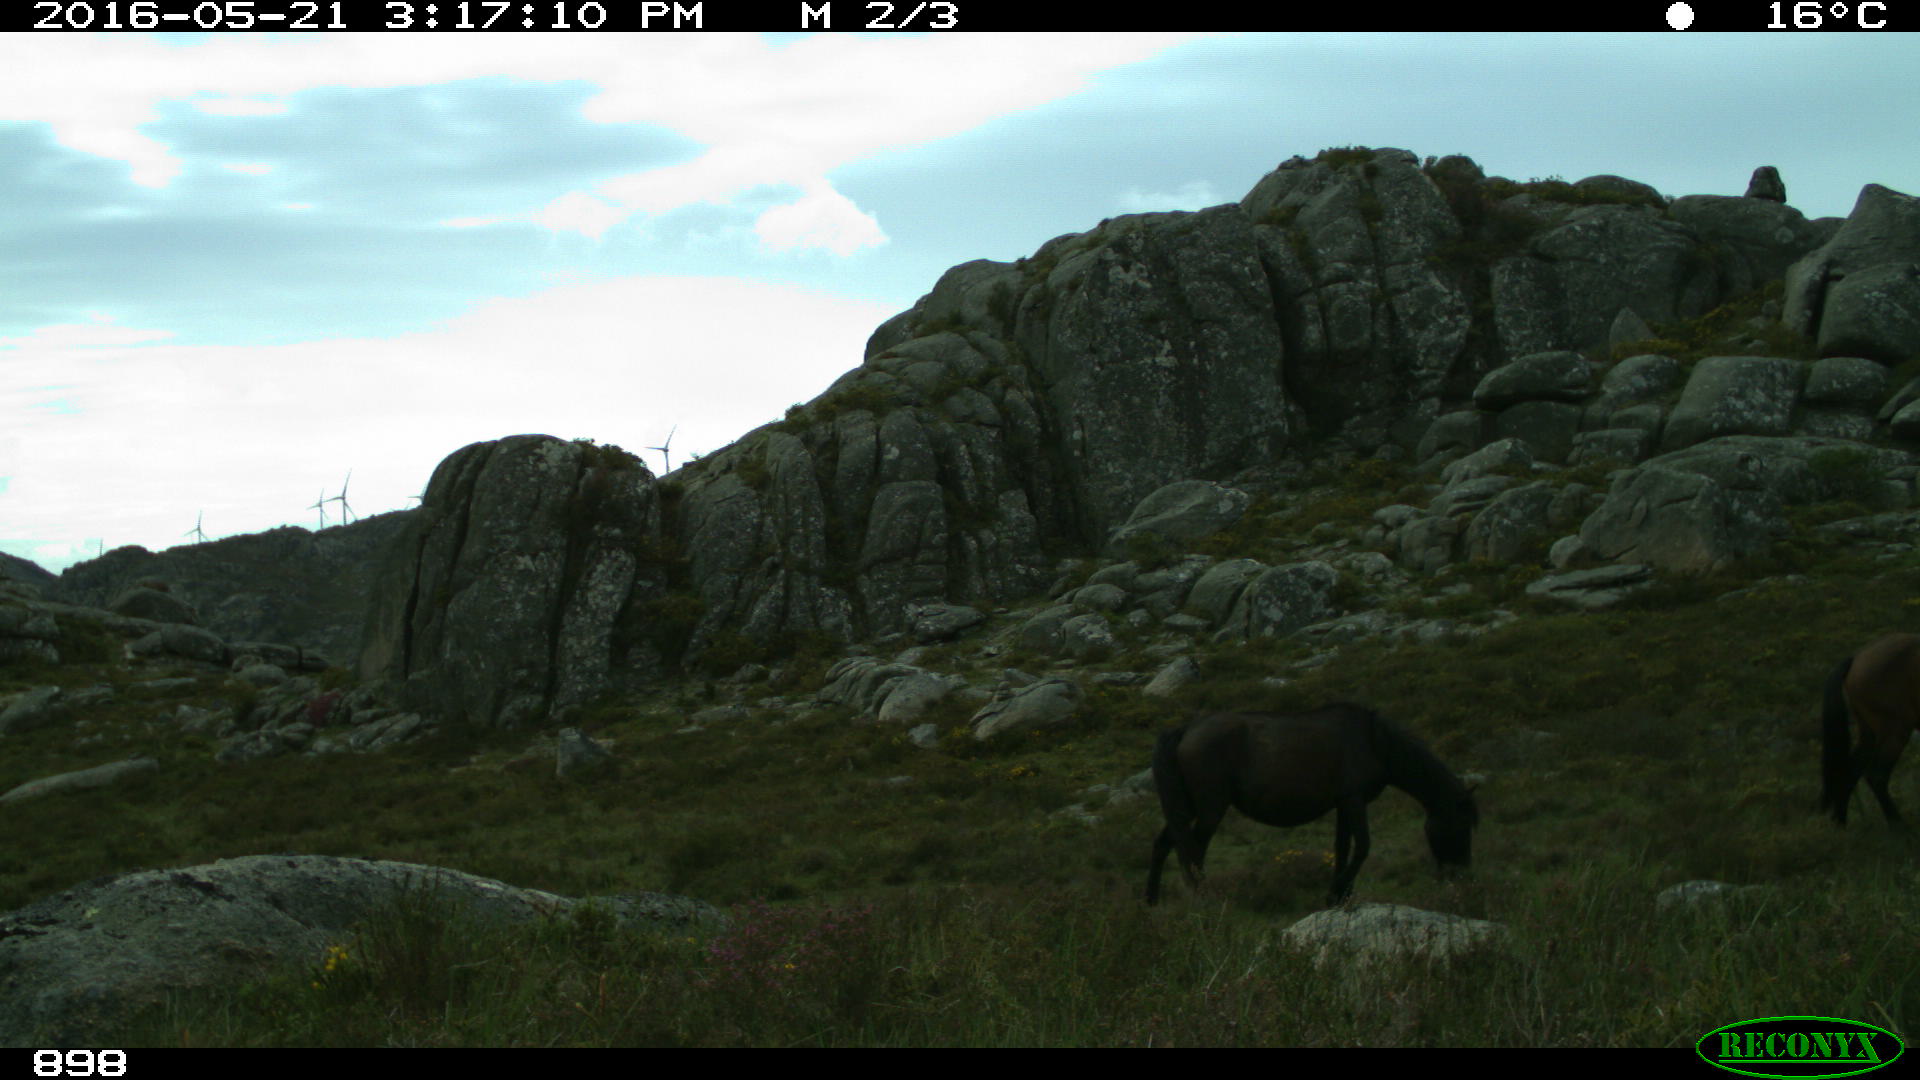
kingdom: Animalia
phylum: Chordata
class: Mammalia
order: Perissodactyla
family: Equidae
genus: Equus
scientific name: Equus caballus
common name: Horse
